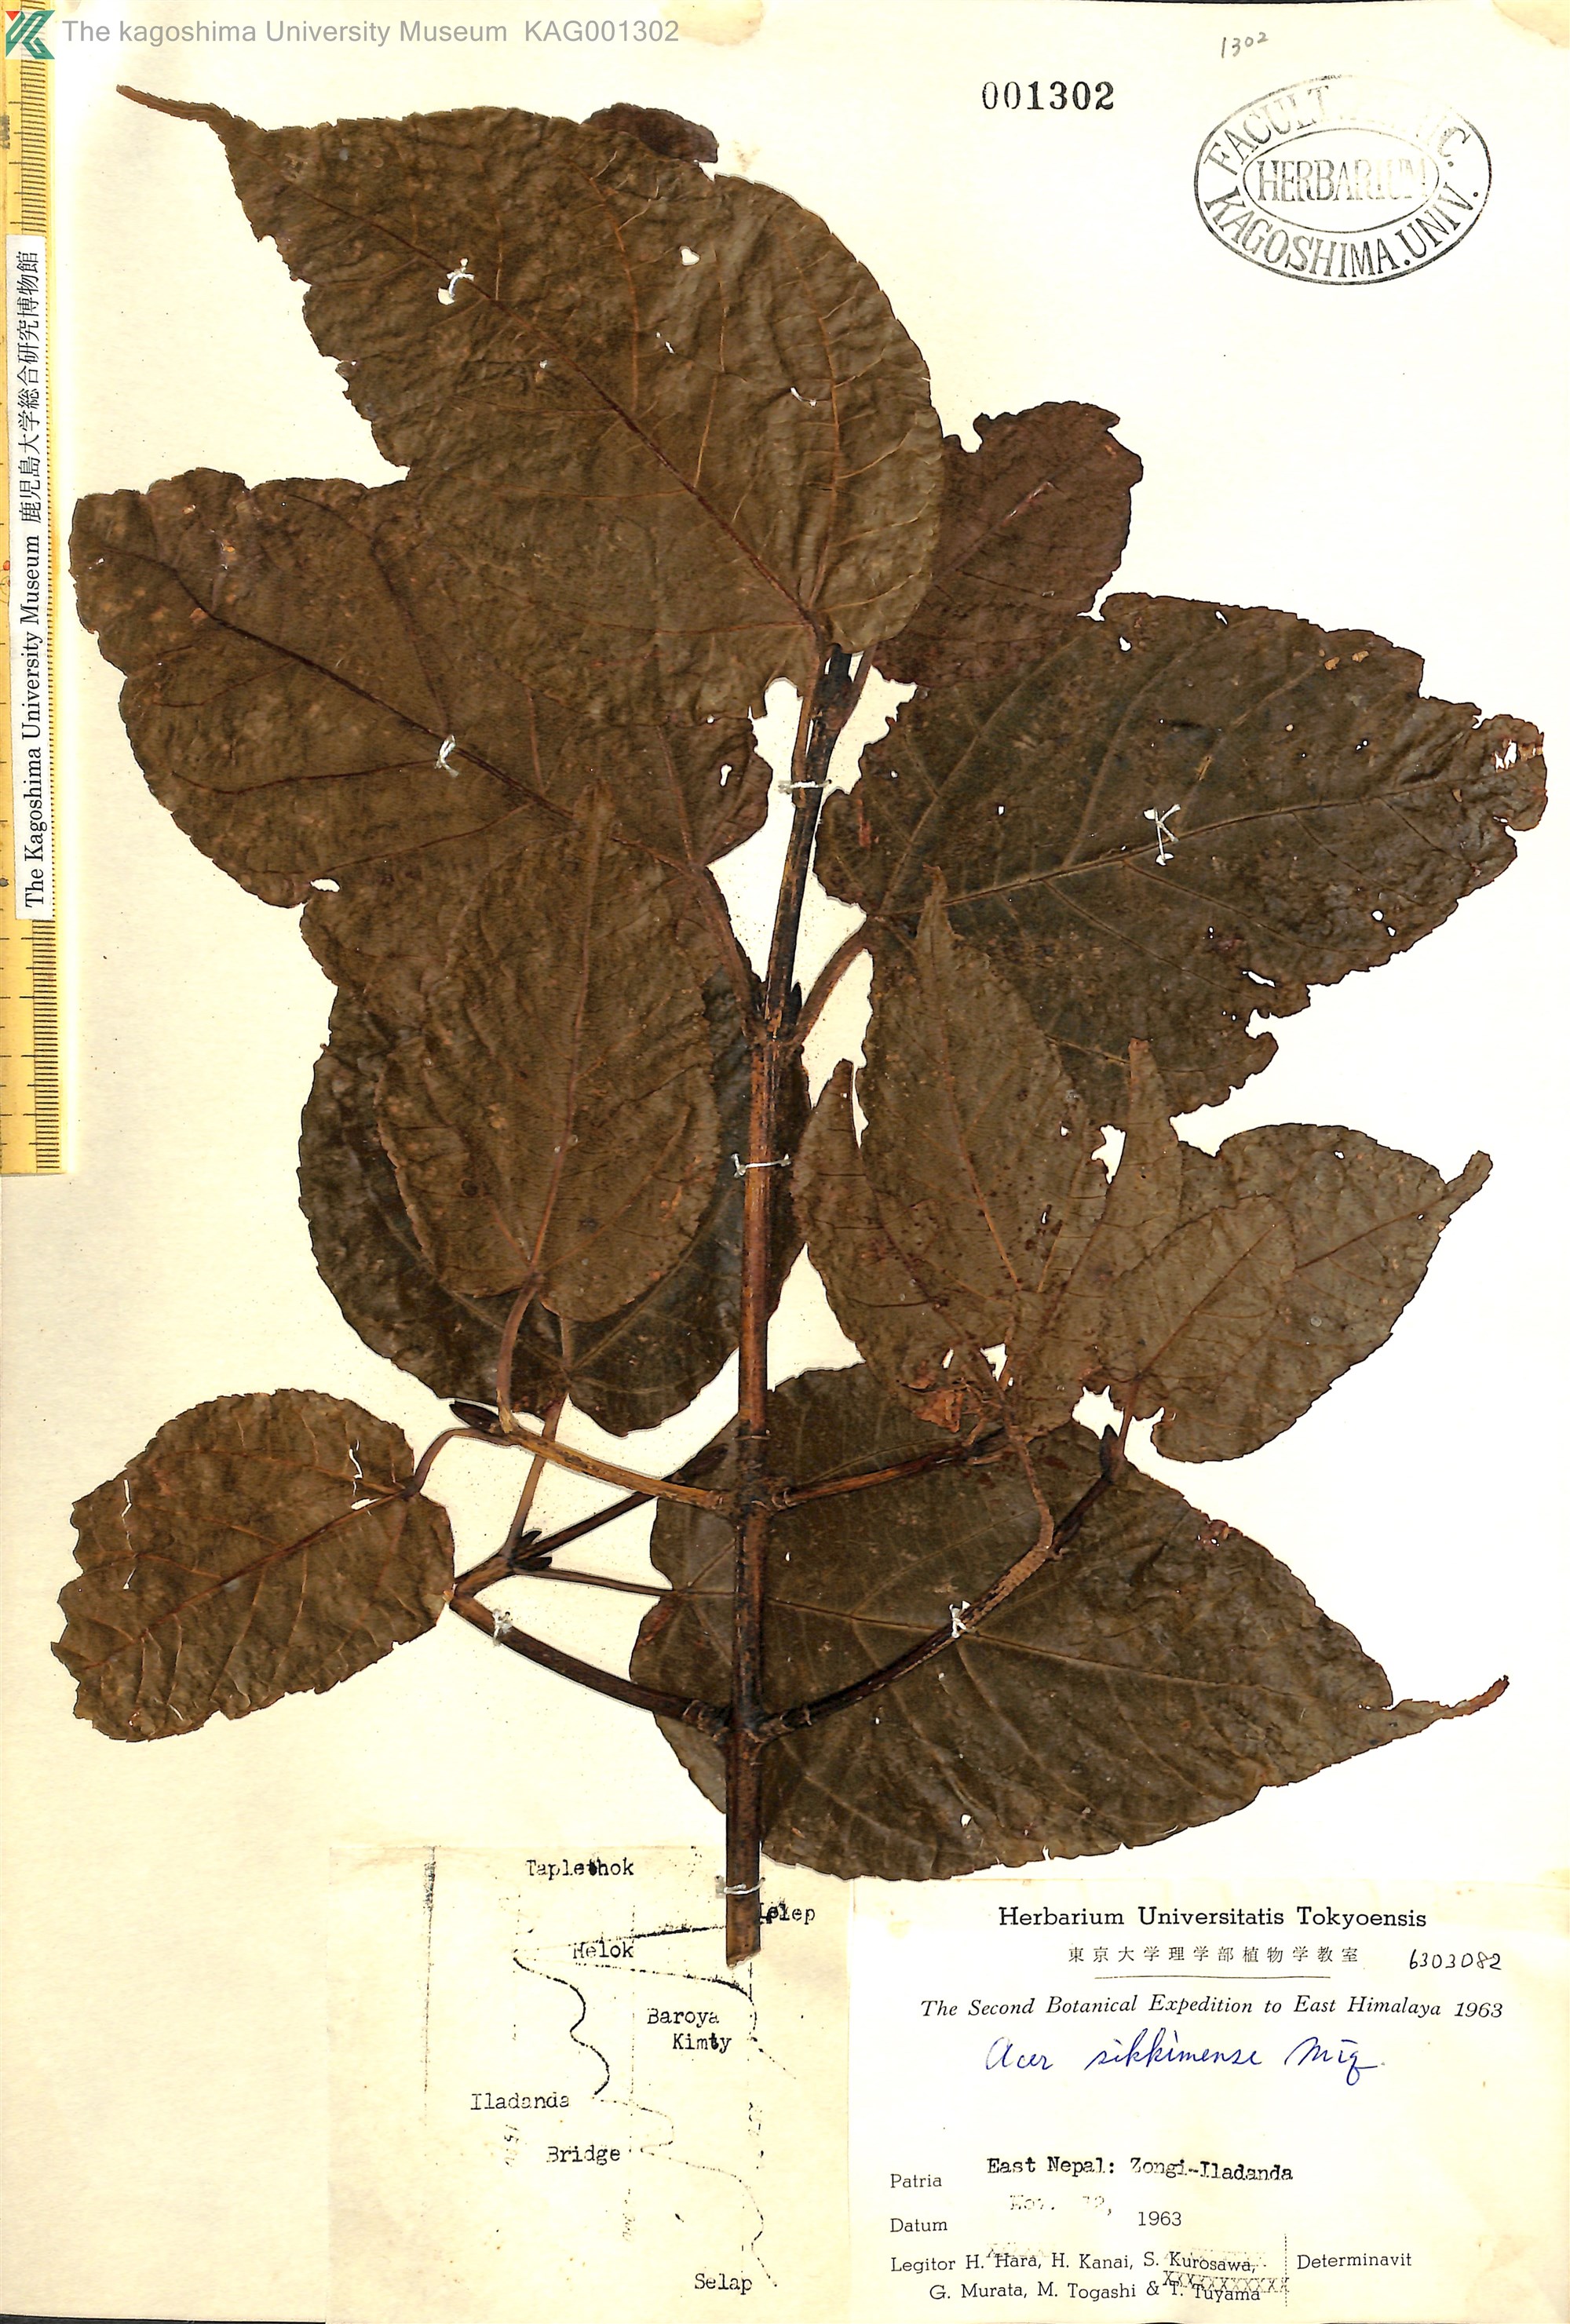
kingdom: Plantae
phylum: Tracheophyta
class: Magnoliopsida
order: Sapindales
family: Sapindaceae
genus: Acer
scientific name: Acer sikkimense
